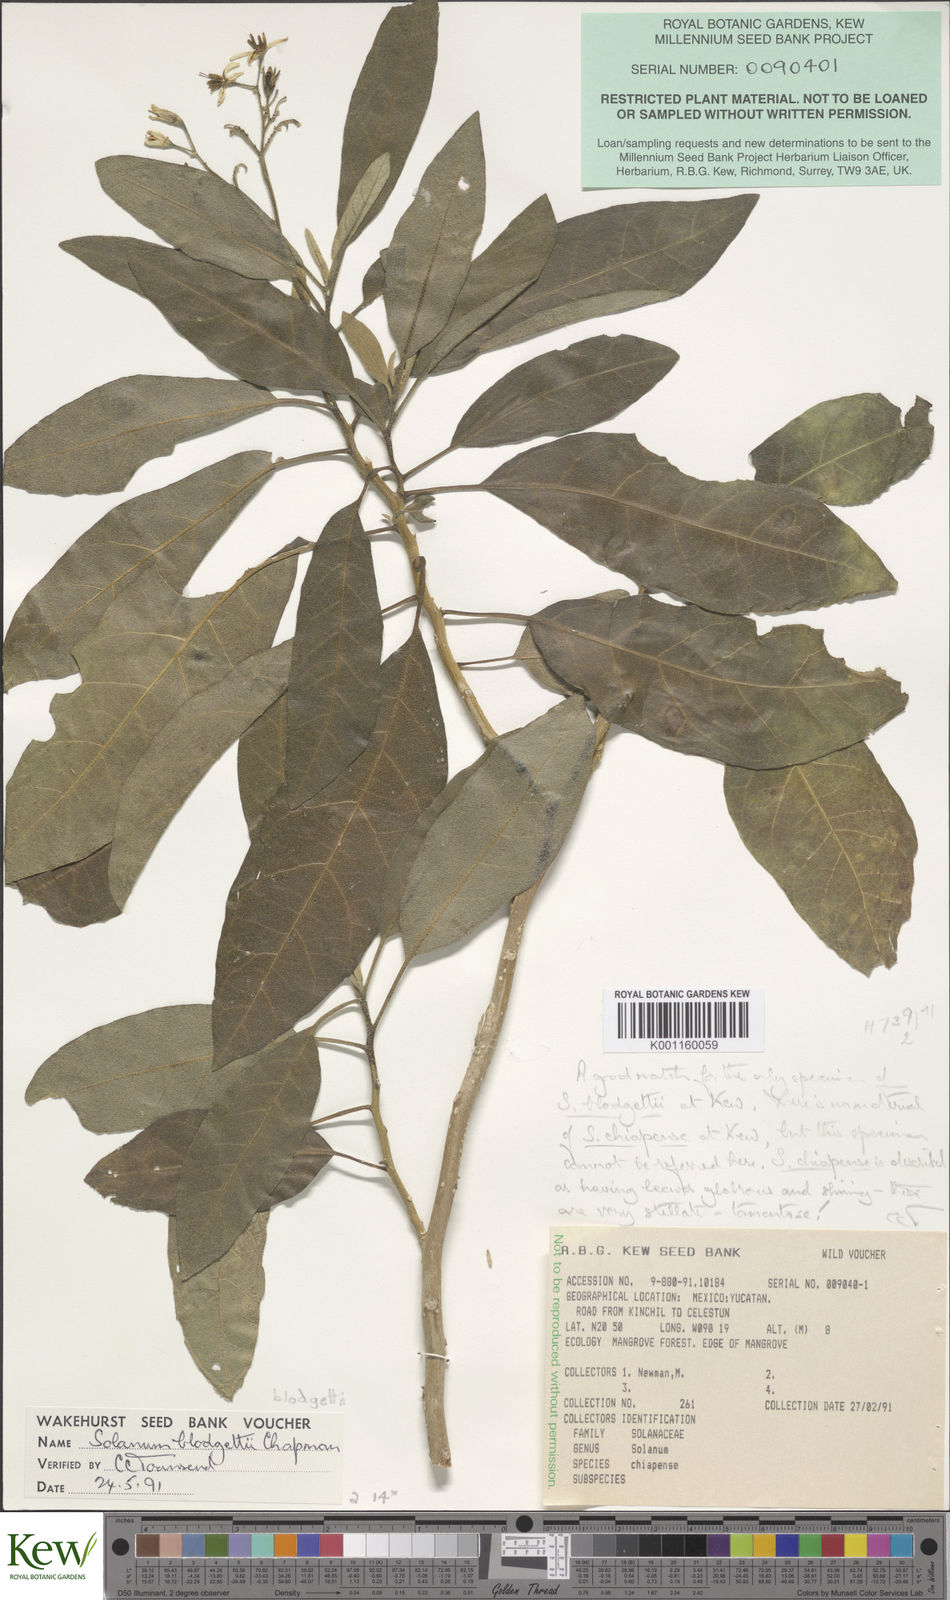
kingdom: Plantae
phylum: Tracheophyta
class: Magnoliopsida
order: Solanales
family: Solanaceae
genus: Solanum
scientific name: Solanum donianum
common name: Mullein nightshade
